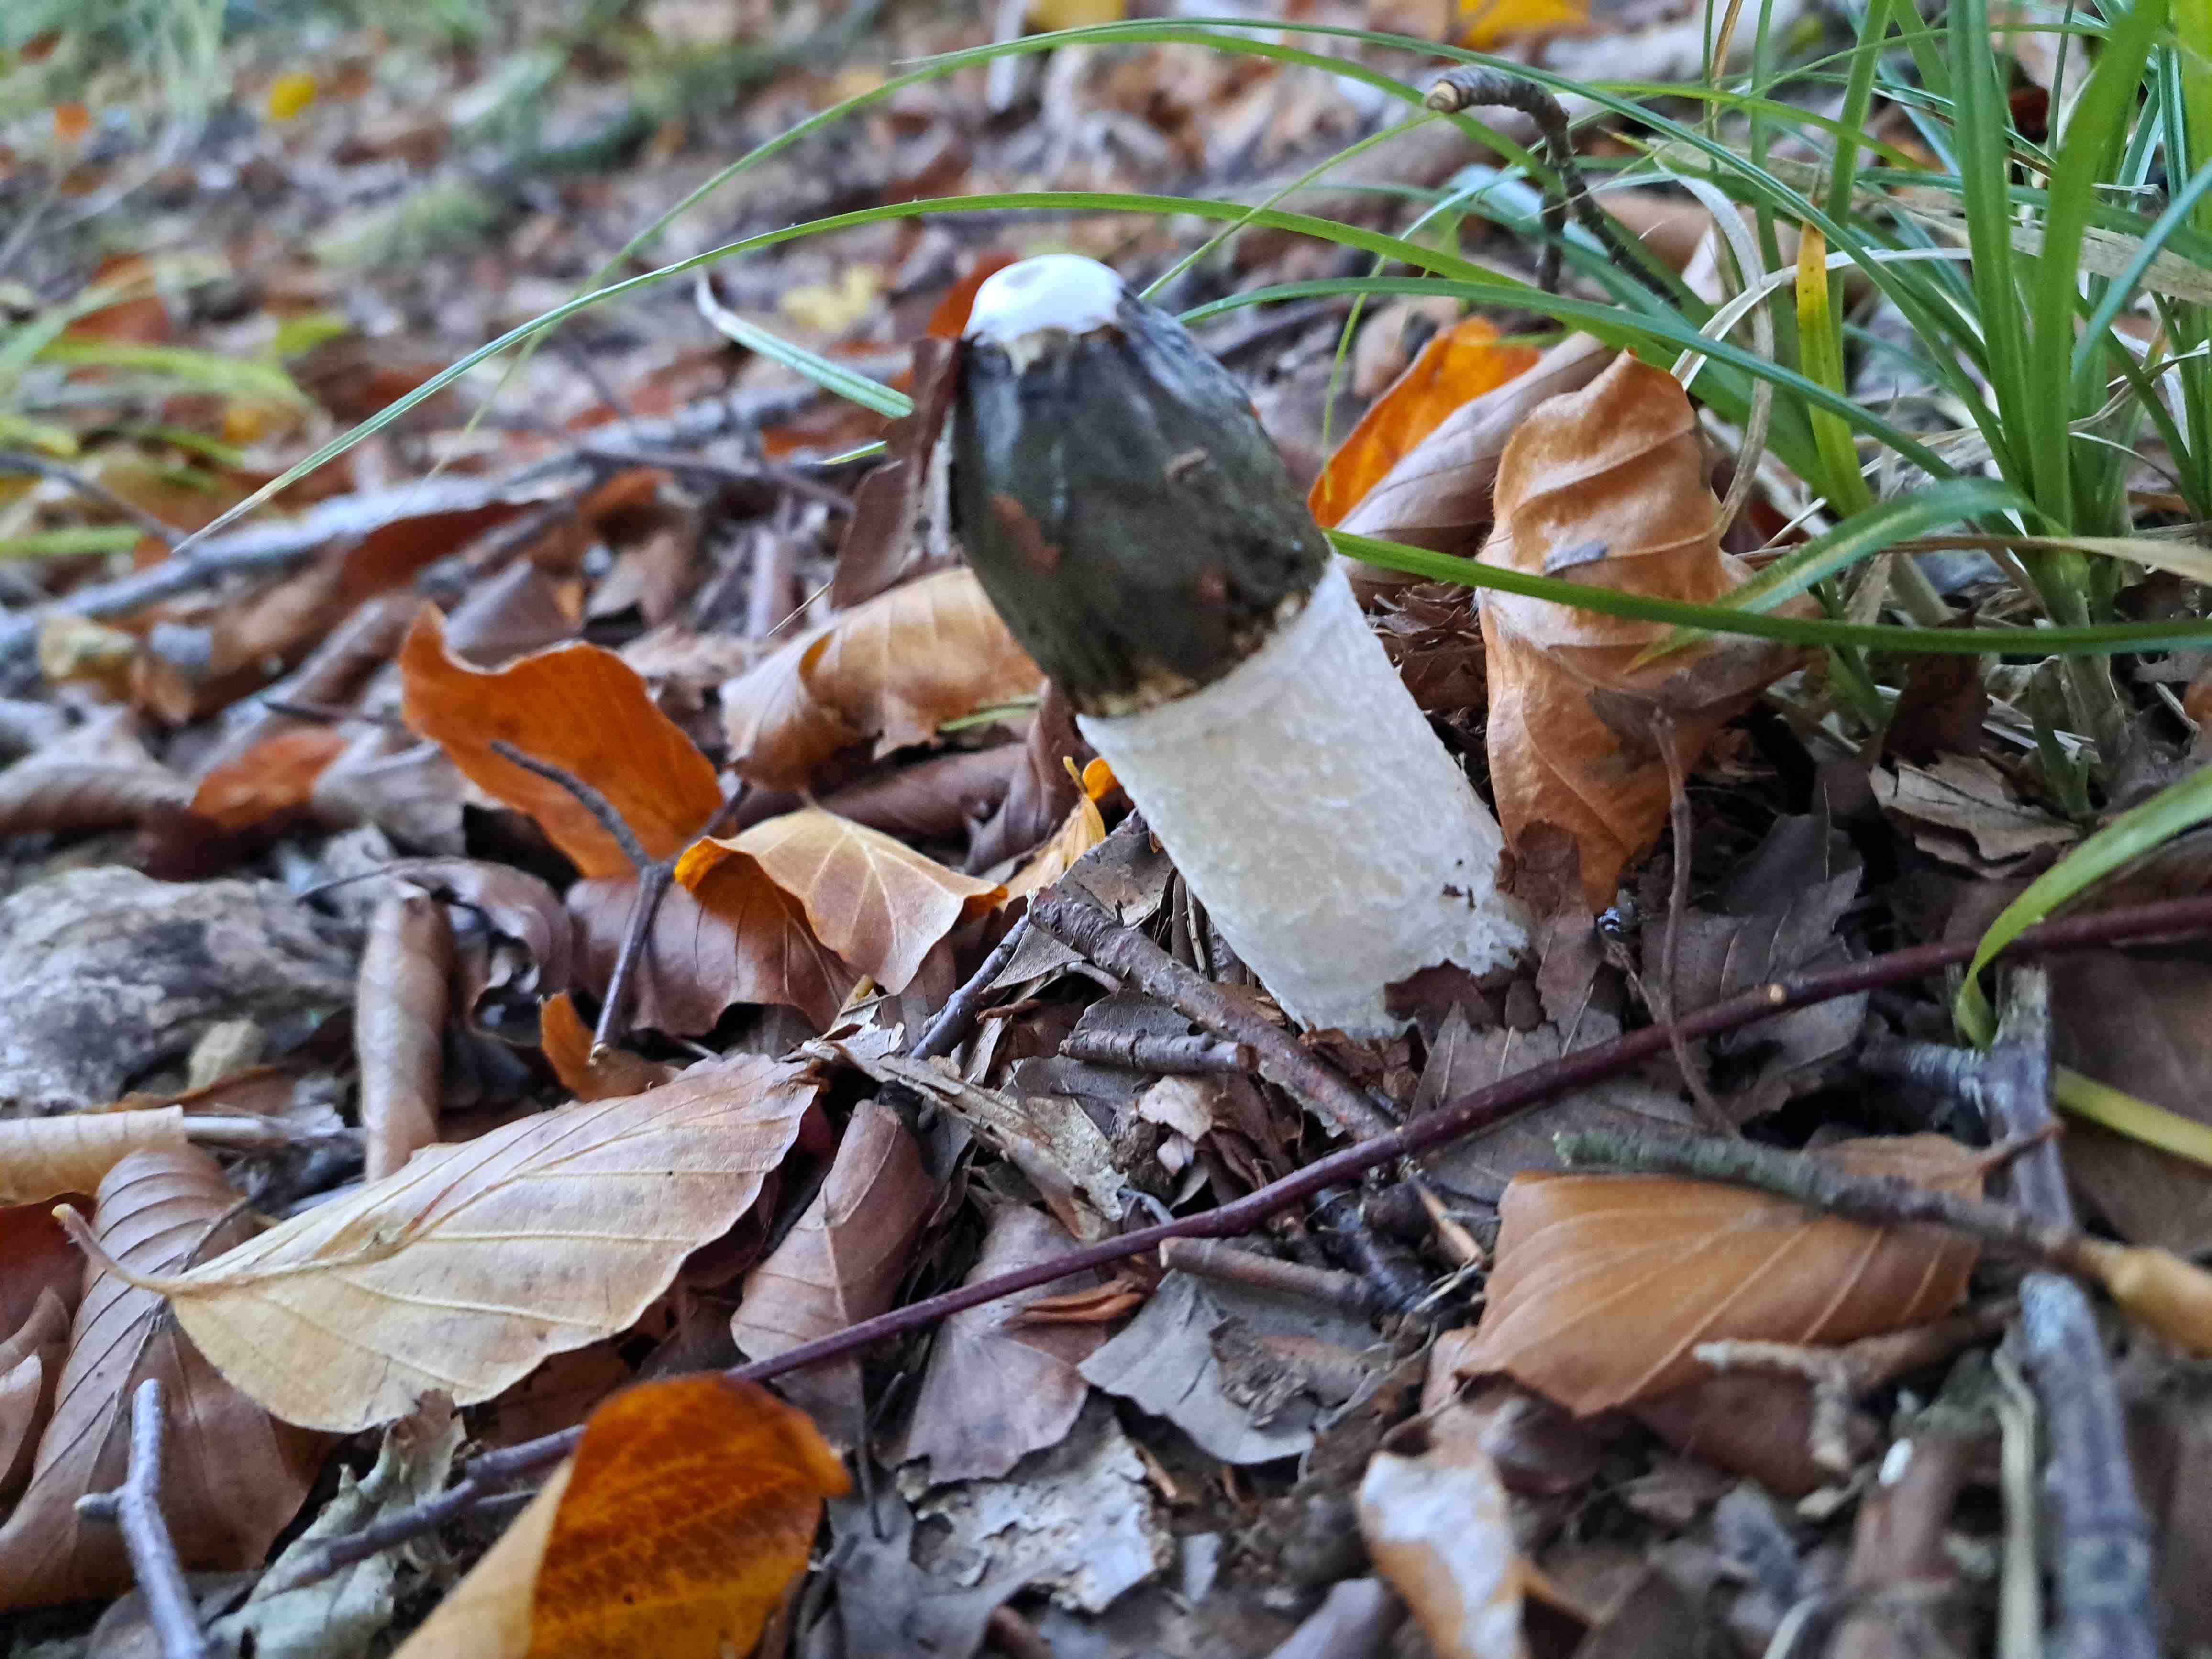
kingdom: Fungi
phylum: Basidiomycota
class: Agaricomycetes
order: Phallales
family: Phallaceae
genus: Phallus
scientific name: Phallus impudicus
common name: almindelig stinksvamp
